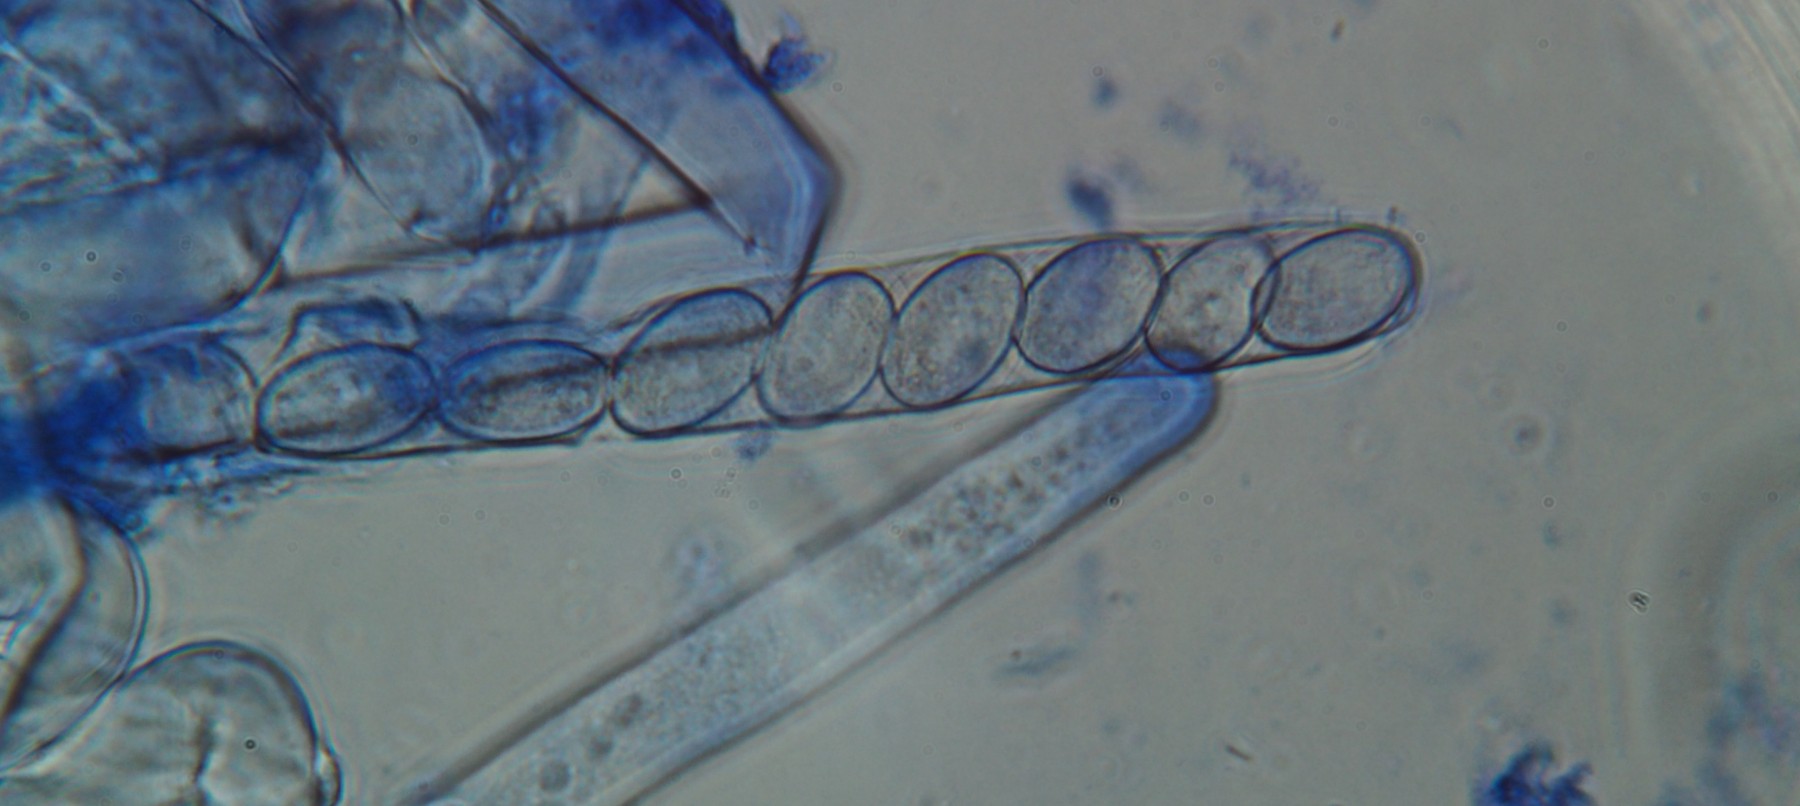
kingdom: Fungi
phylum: Ascomycota
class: Pezizomycetes
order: Pezizales
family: Pezizaceae
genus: Peziza
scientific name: Peziza varia
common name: Ved-bægersvamp
